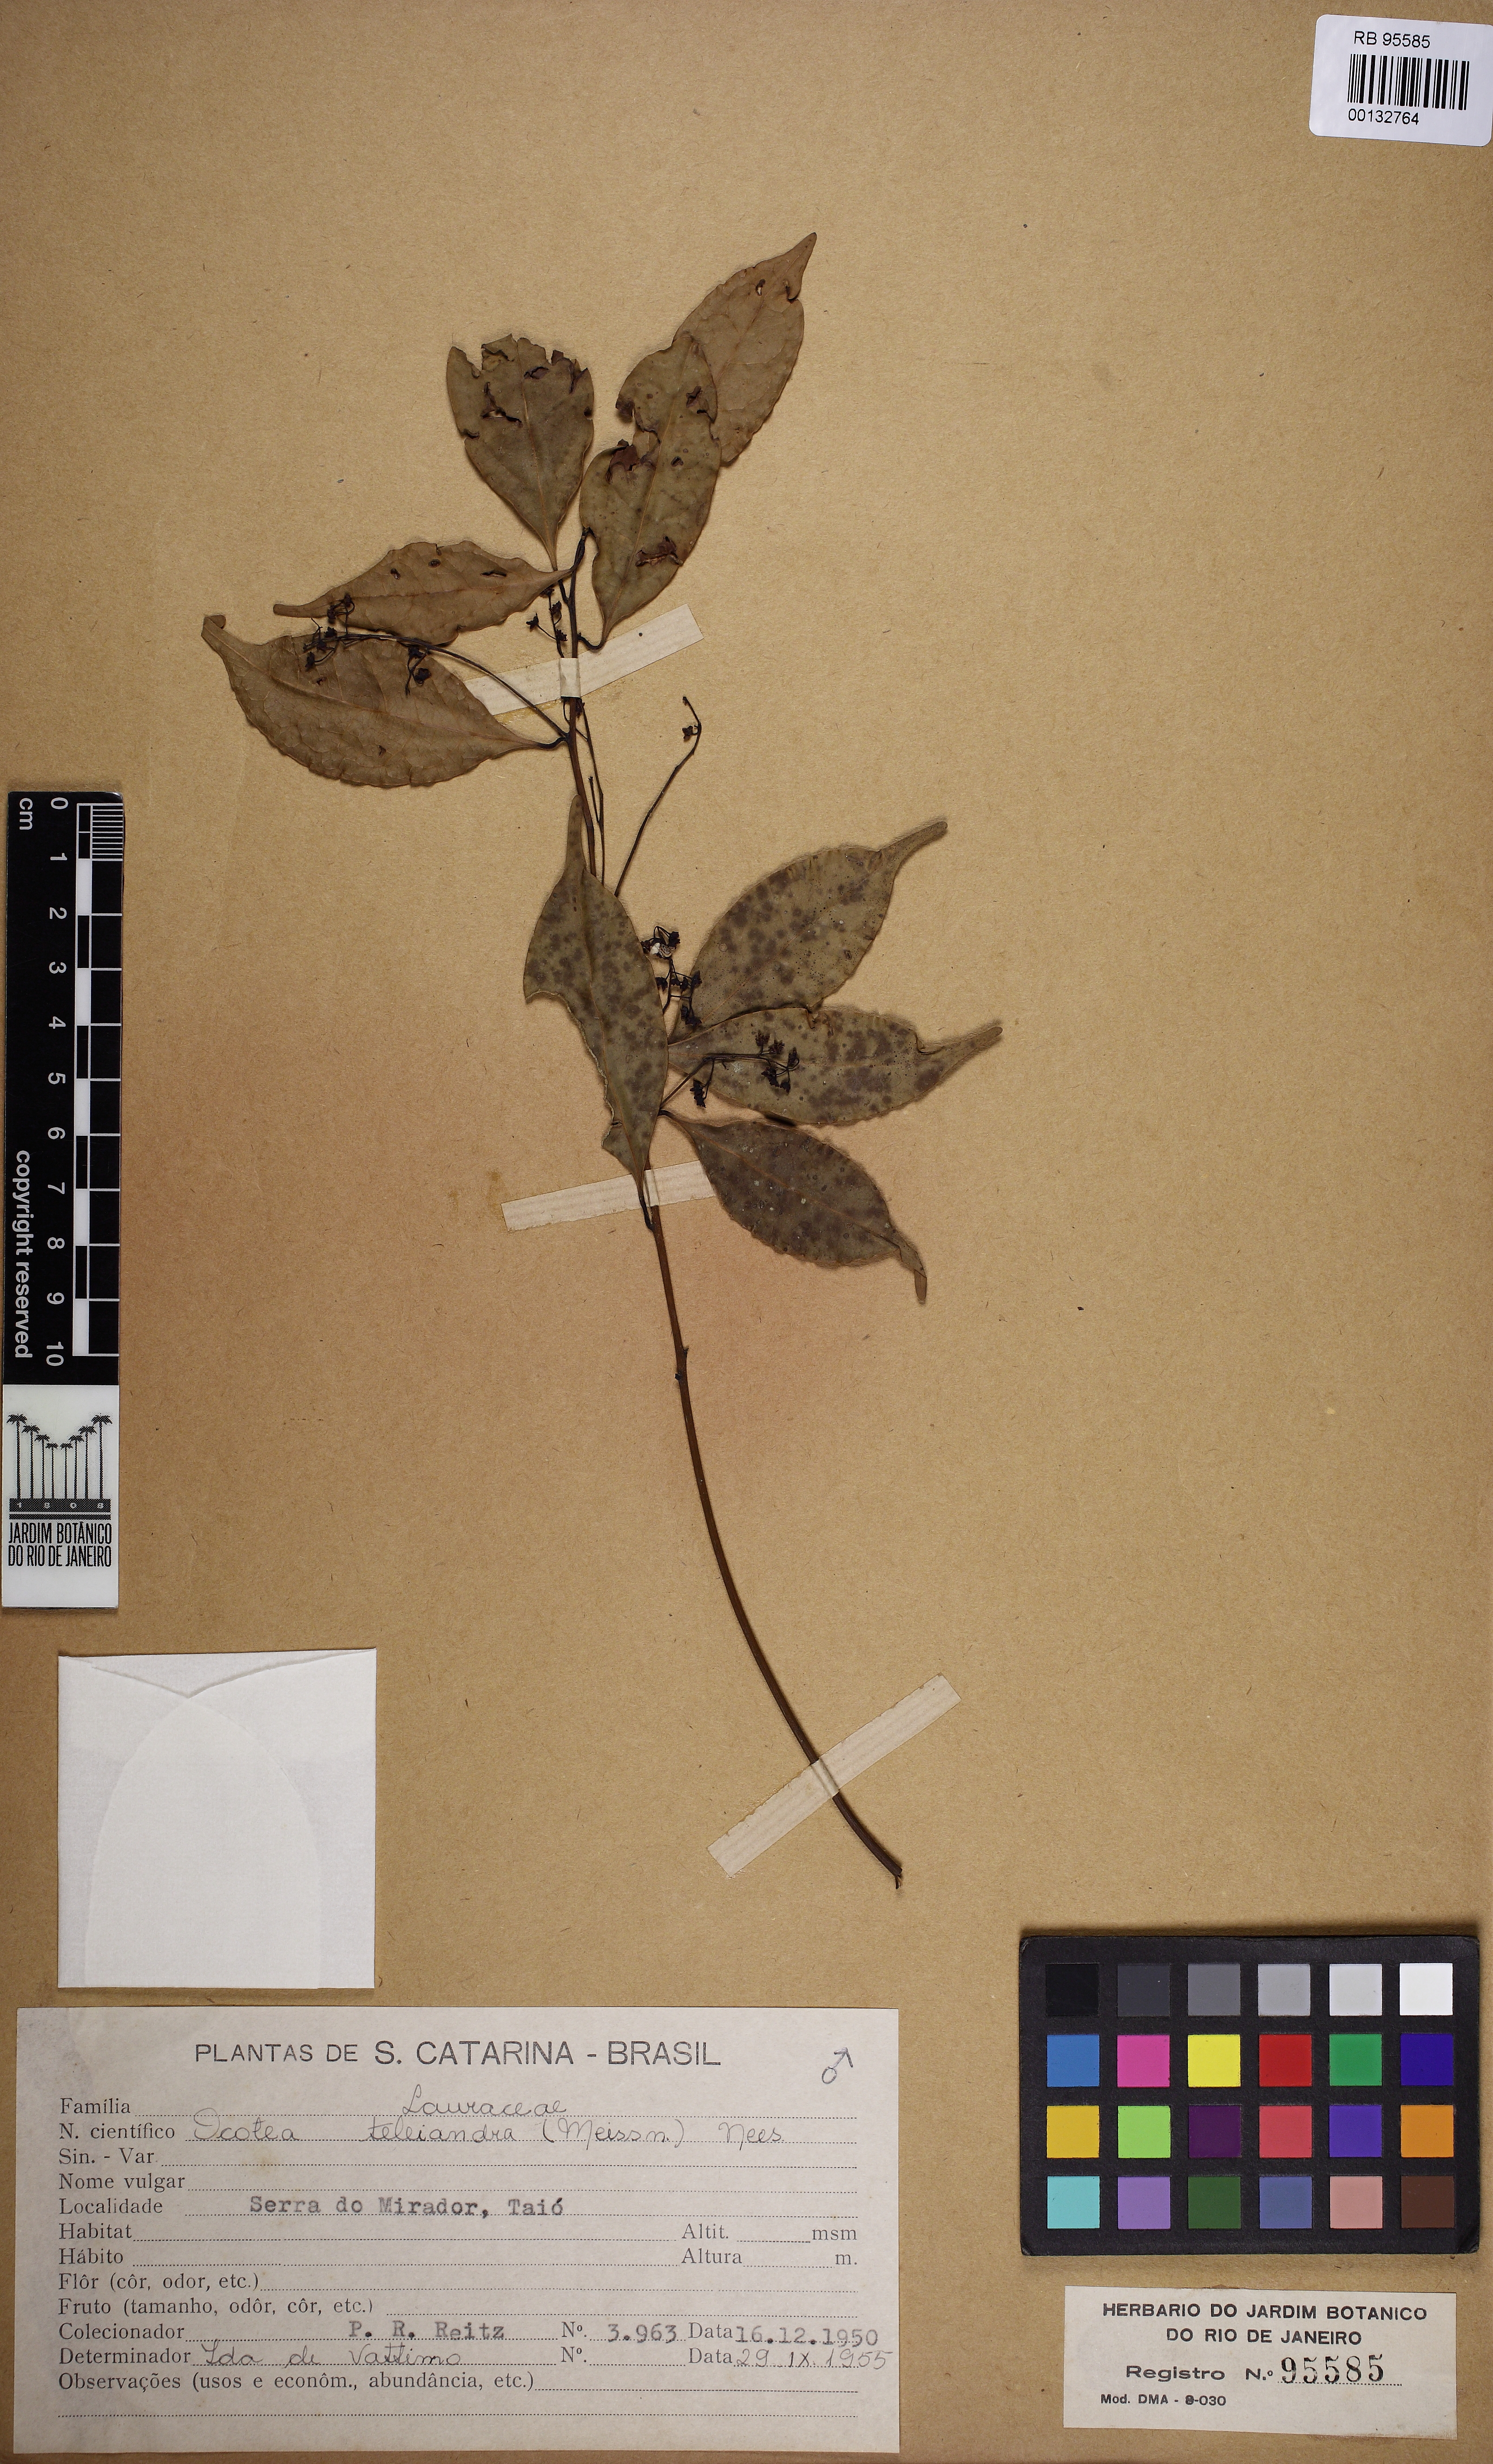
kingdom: Plantae
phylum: Tracheophyta
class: Magnoliopsida
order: Laurales
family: Lauraceae
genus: Ocotea
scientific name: Ocotea teleiandra
